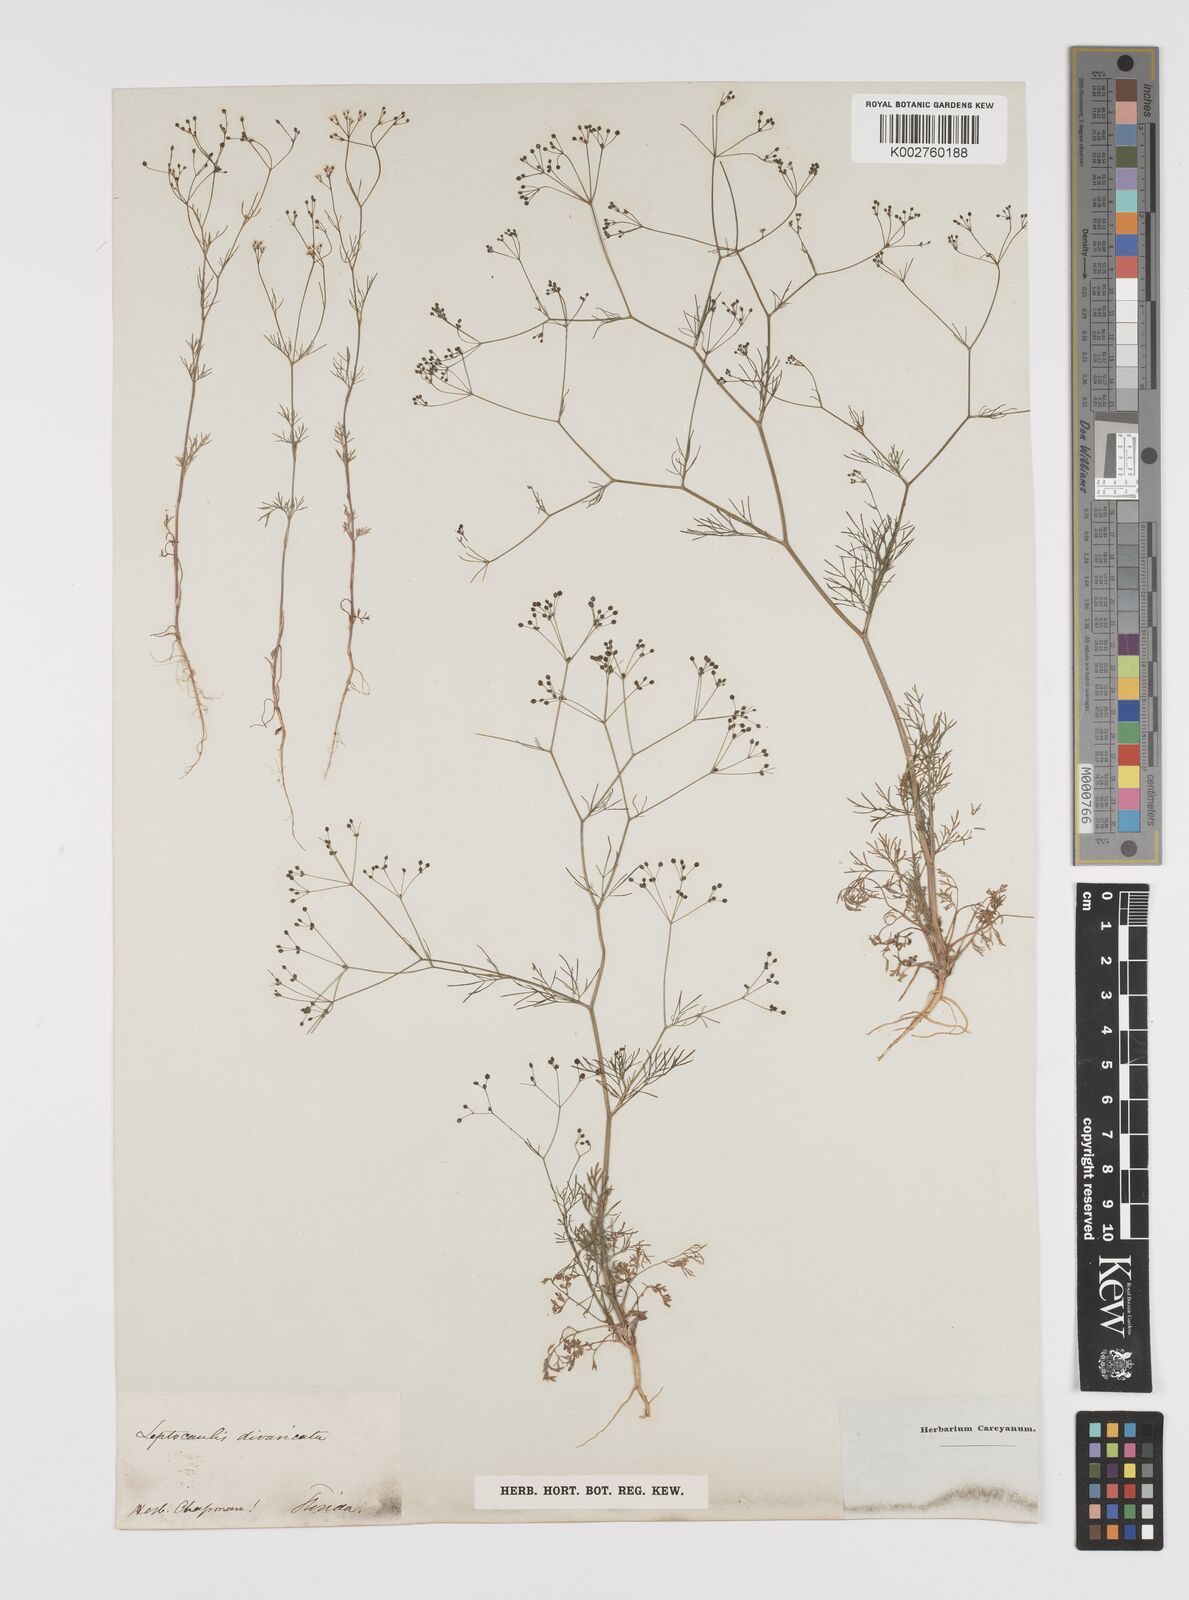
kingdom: Plantae
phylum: Tracheophyta
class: Magnoliopsida
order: Apiales
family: Apiaceae
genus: Spermolepis
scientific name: Spermolepis divaricata
